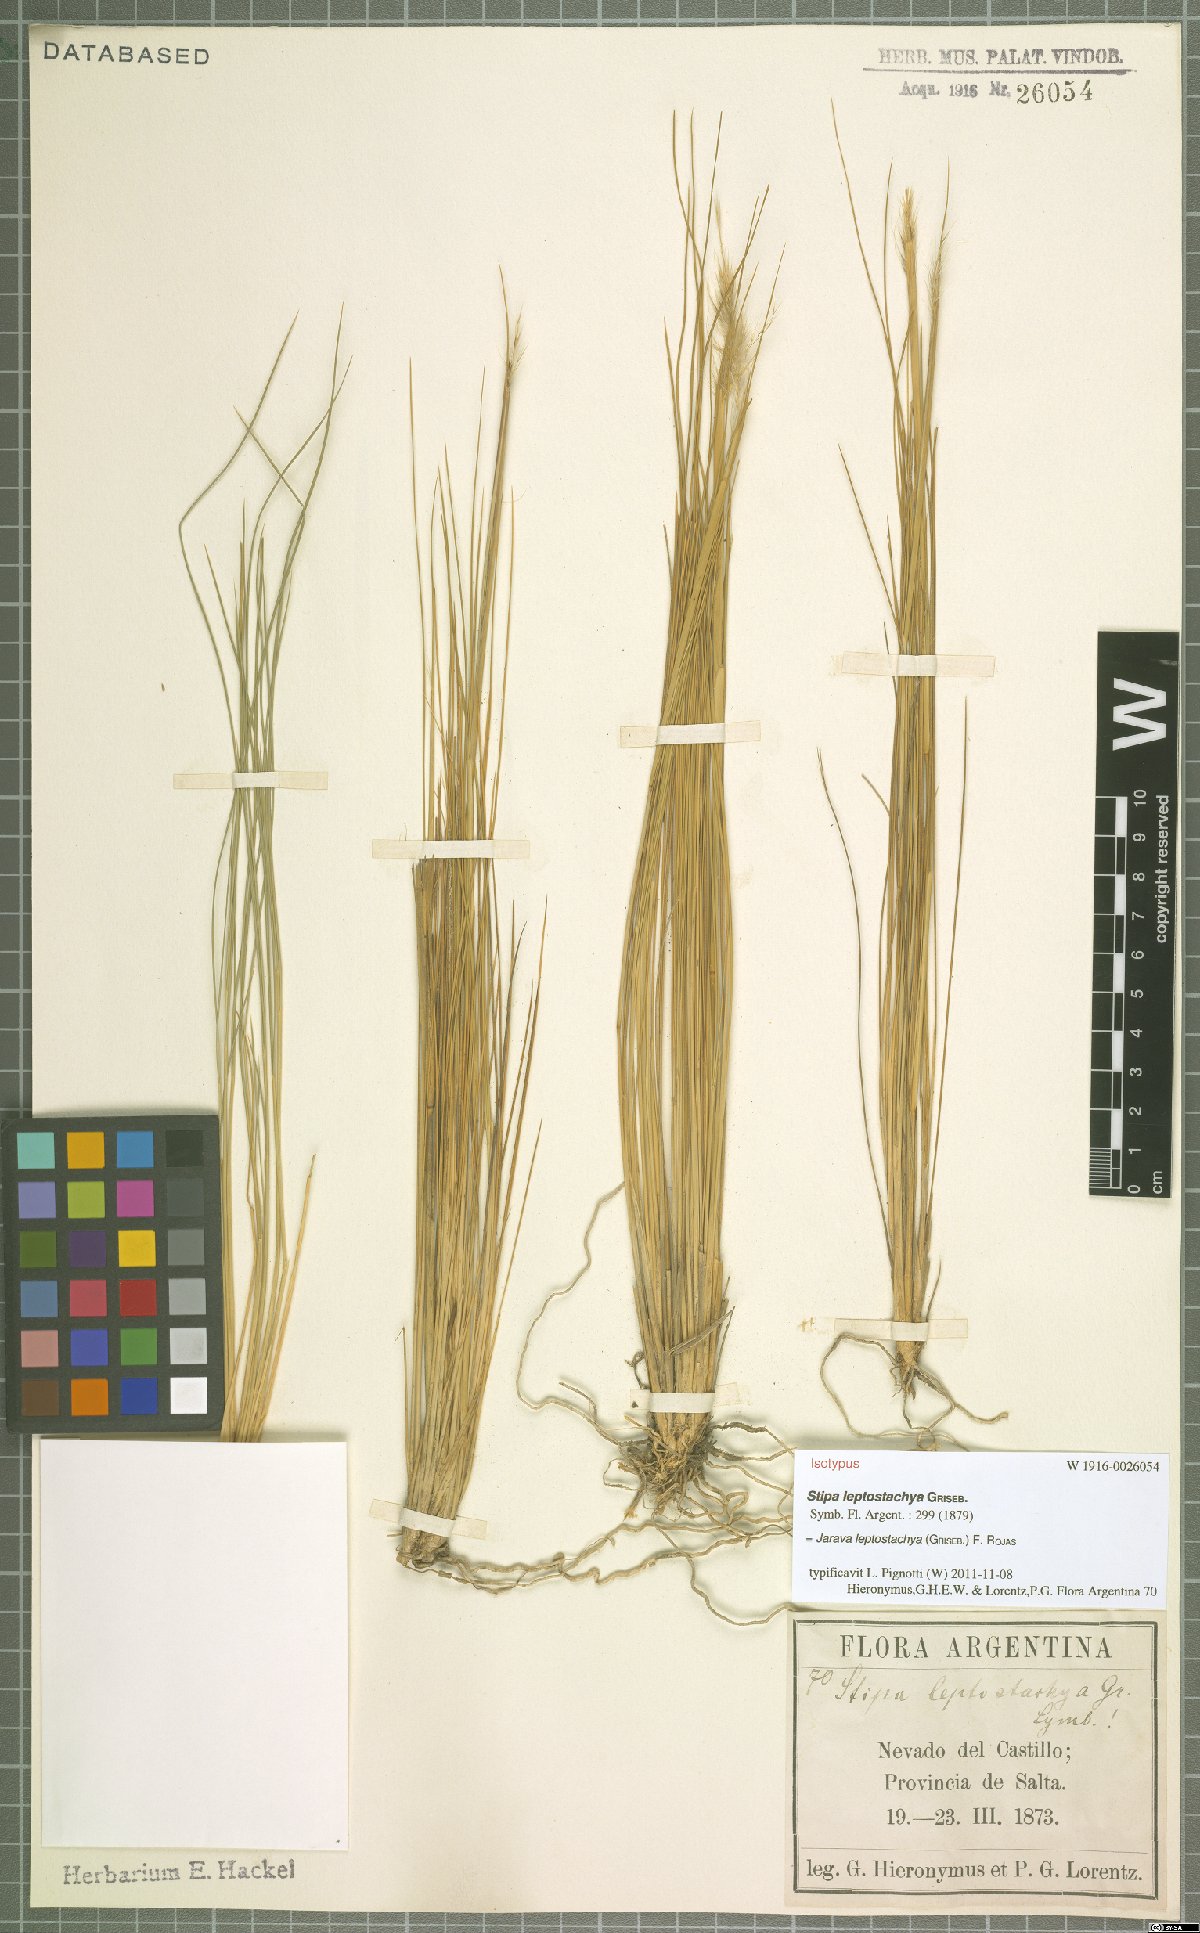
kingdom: Plantae
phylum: Tracheophyta
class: Liliopsida
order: Poales
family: Poaceae
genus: Jarava
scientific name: Jarava leptostachya
